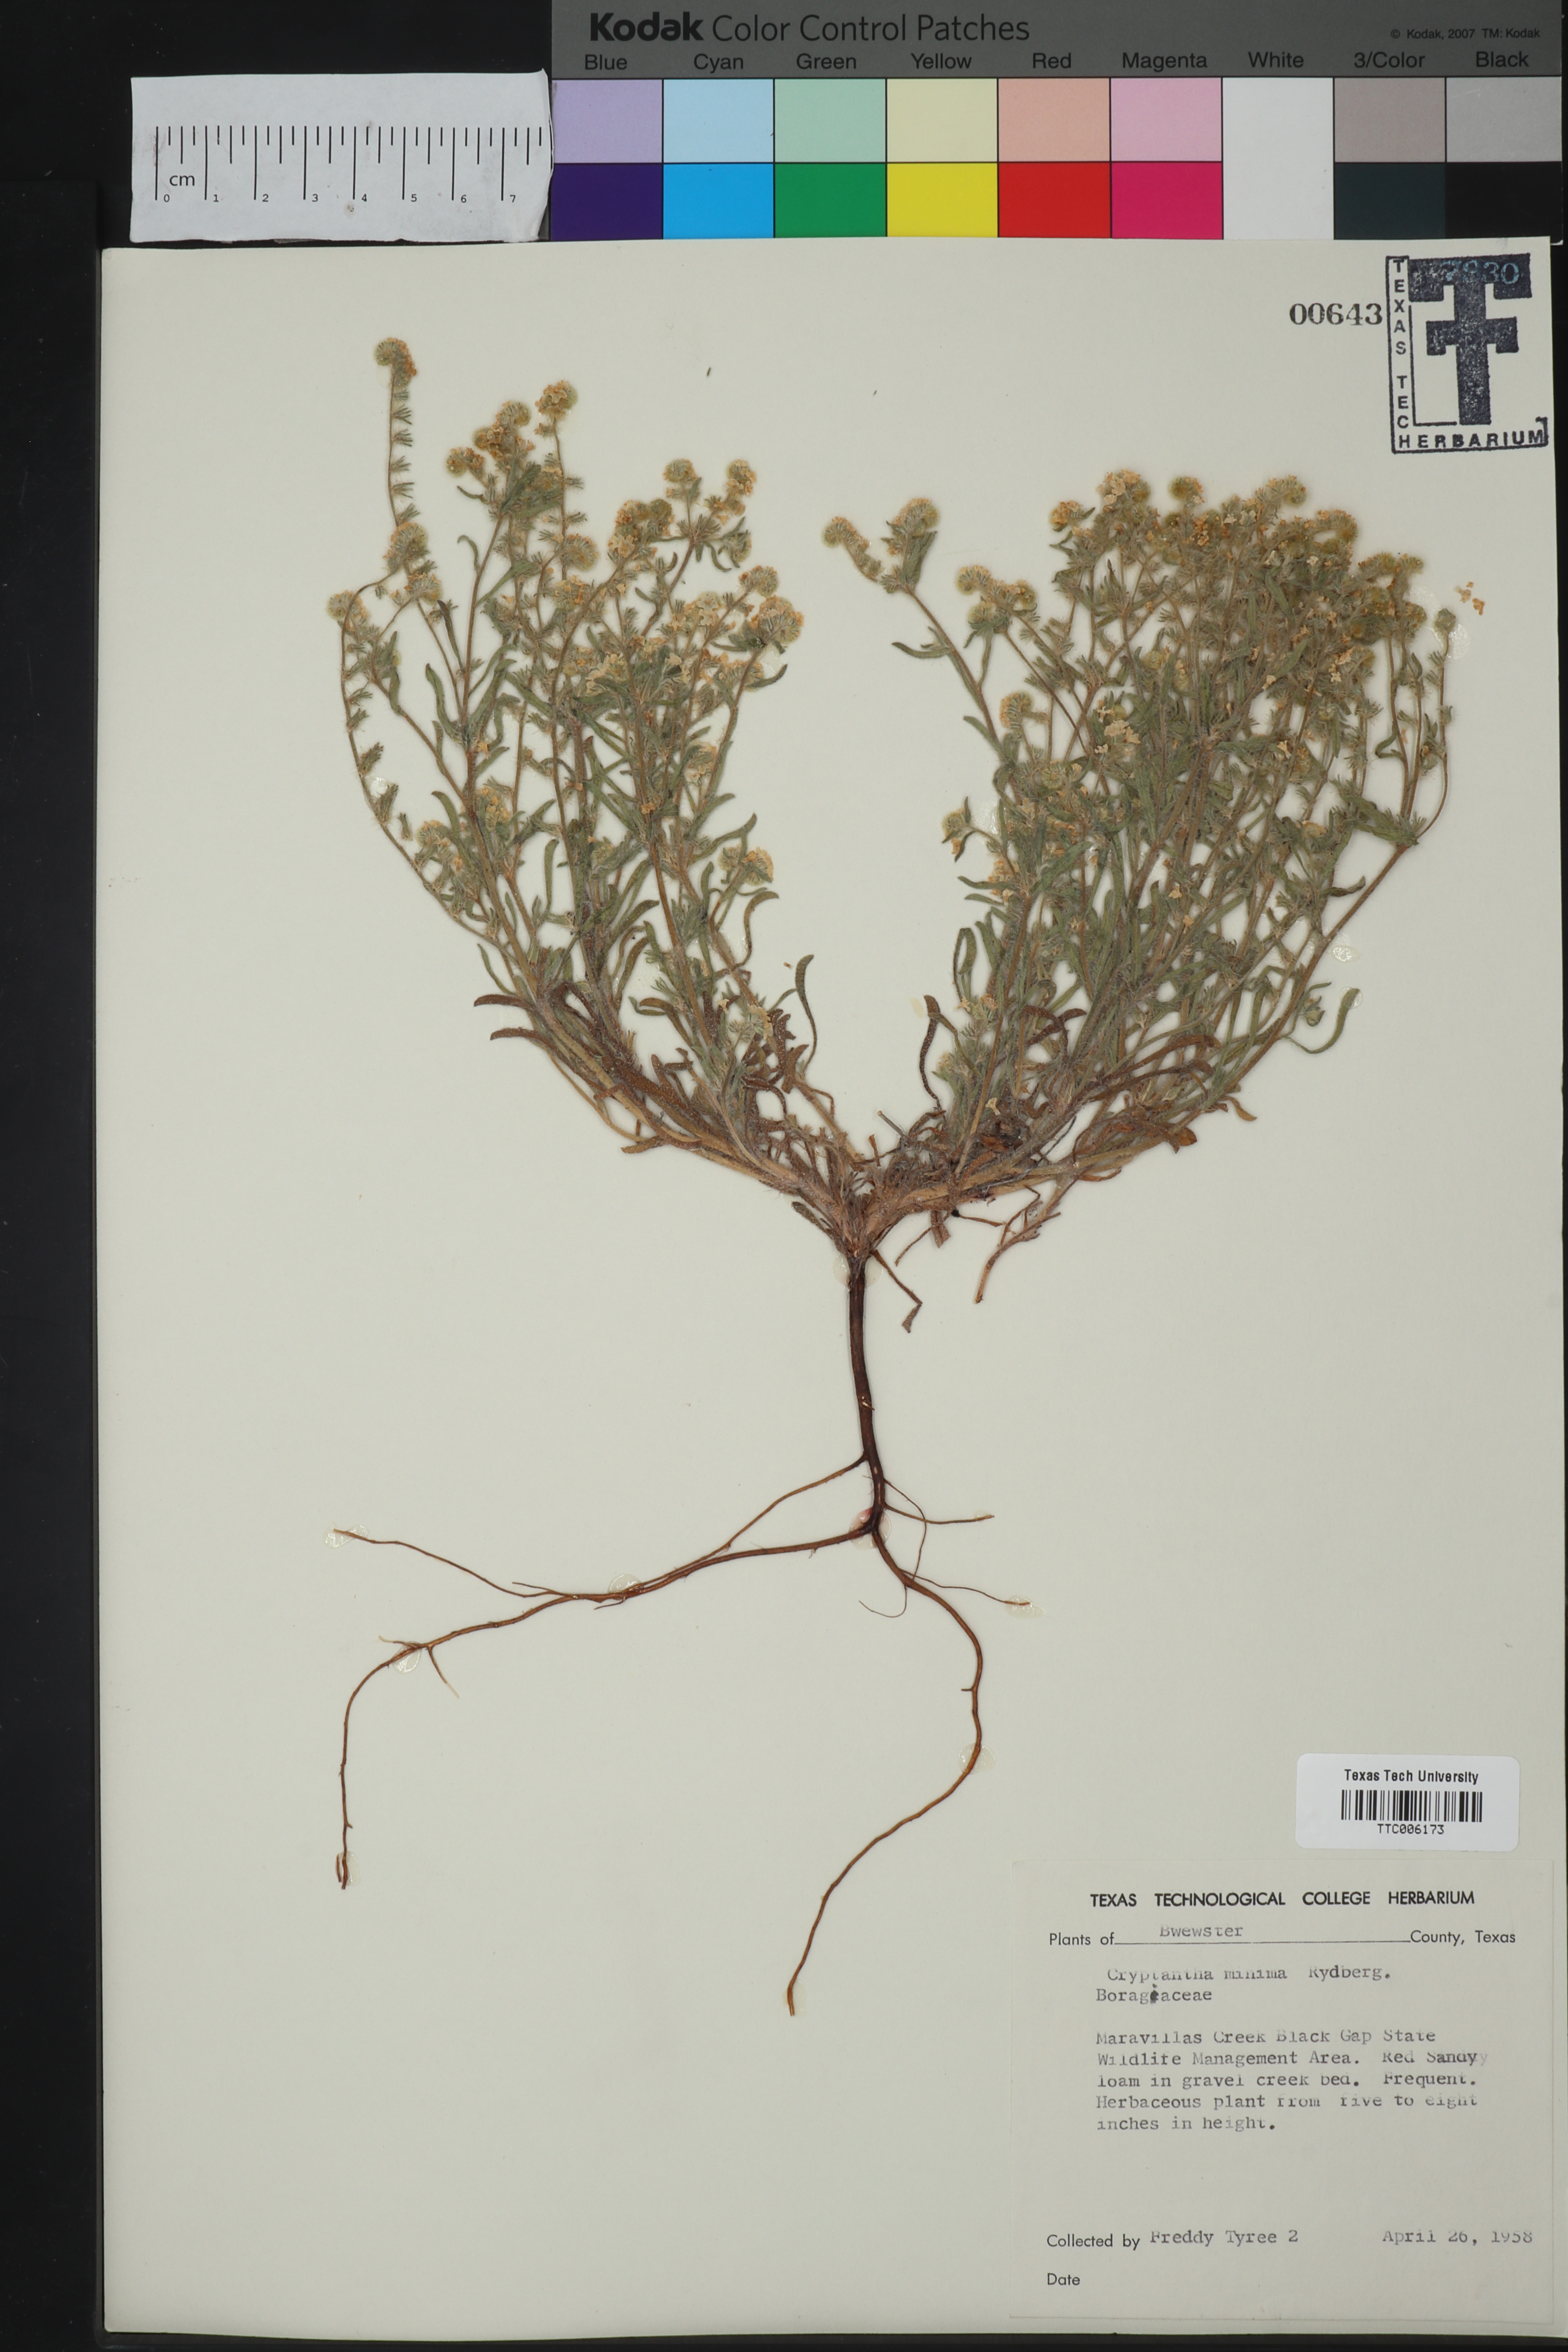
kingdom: Plantae
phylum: Tracheophyta
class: Magnoliopsida
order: Boraginales
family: Boraginaceae
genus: Cryptantha
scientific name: Cryptantha minima
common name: Little cat's-eye
